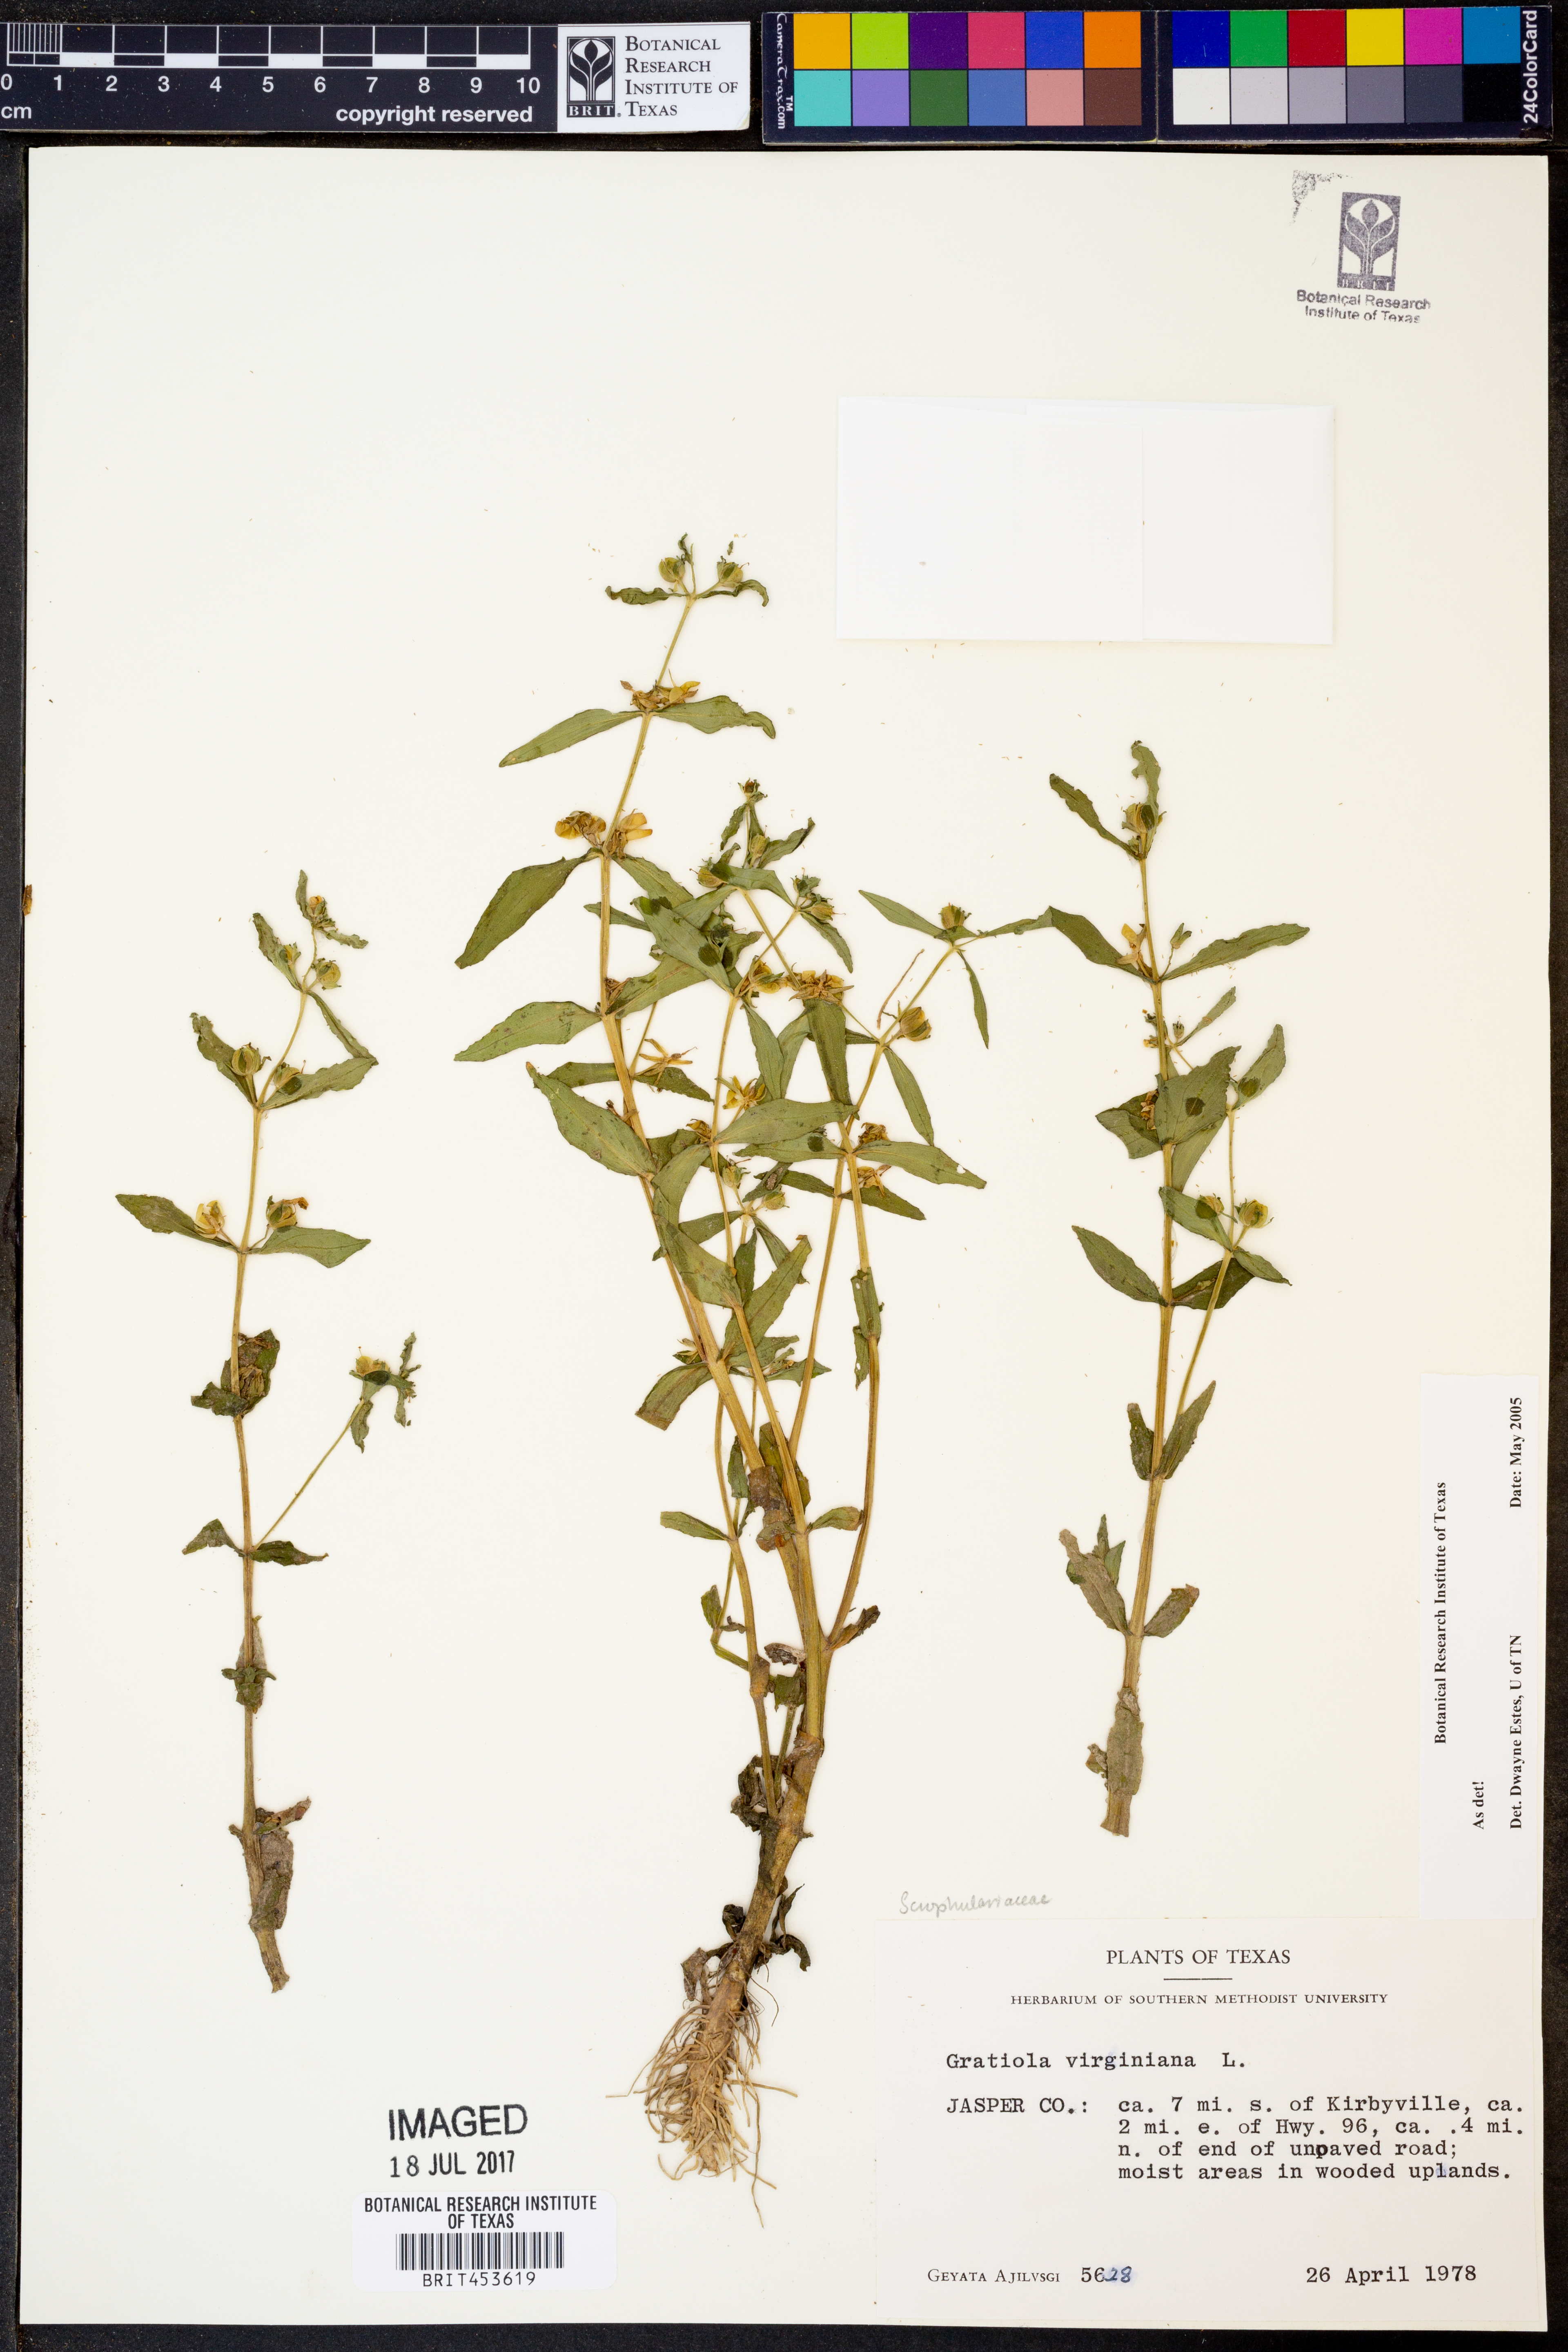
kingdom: Plantae
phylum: Tracheophyta
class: Magnoliopsida
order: Lamiales
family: Plantaginaceae
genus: Gratiola
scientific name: Gratiola virginiana
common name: Roundfruit hedgehyssop
